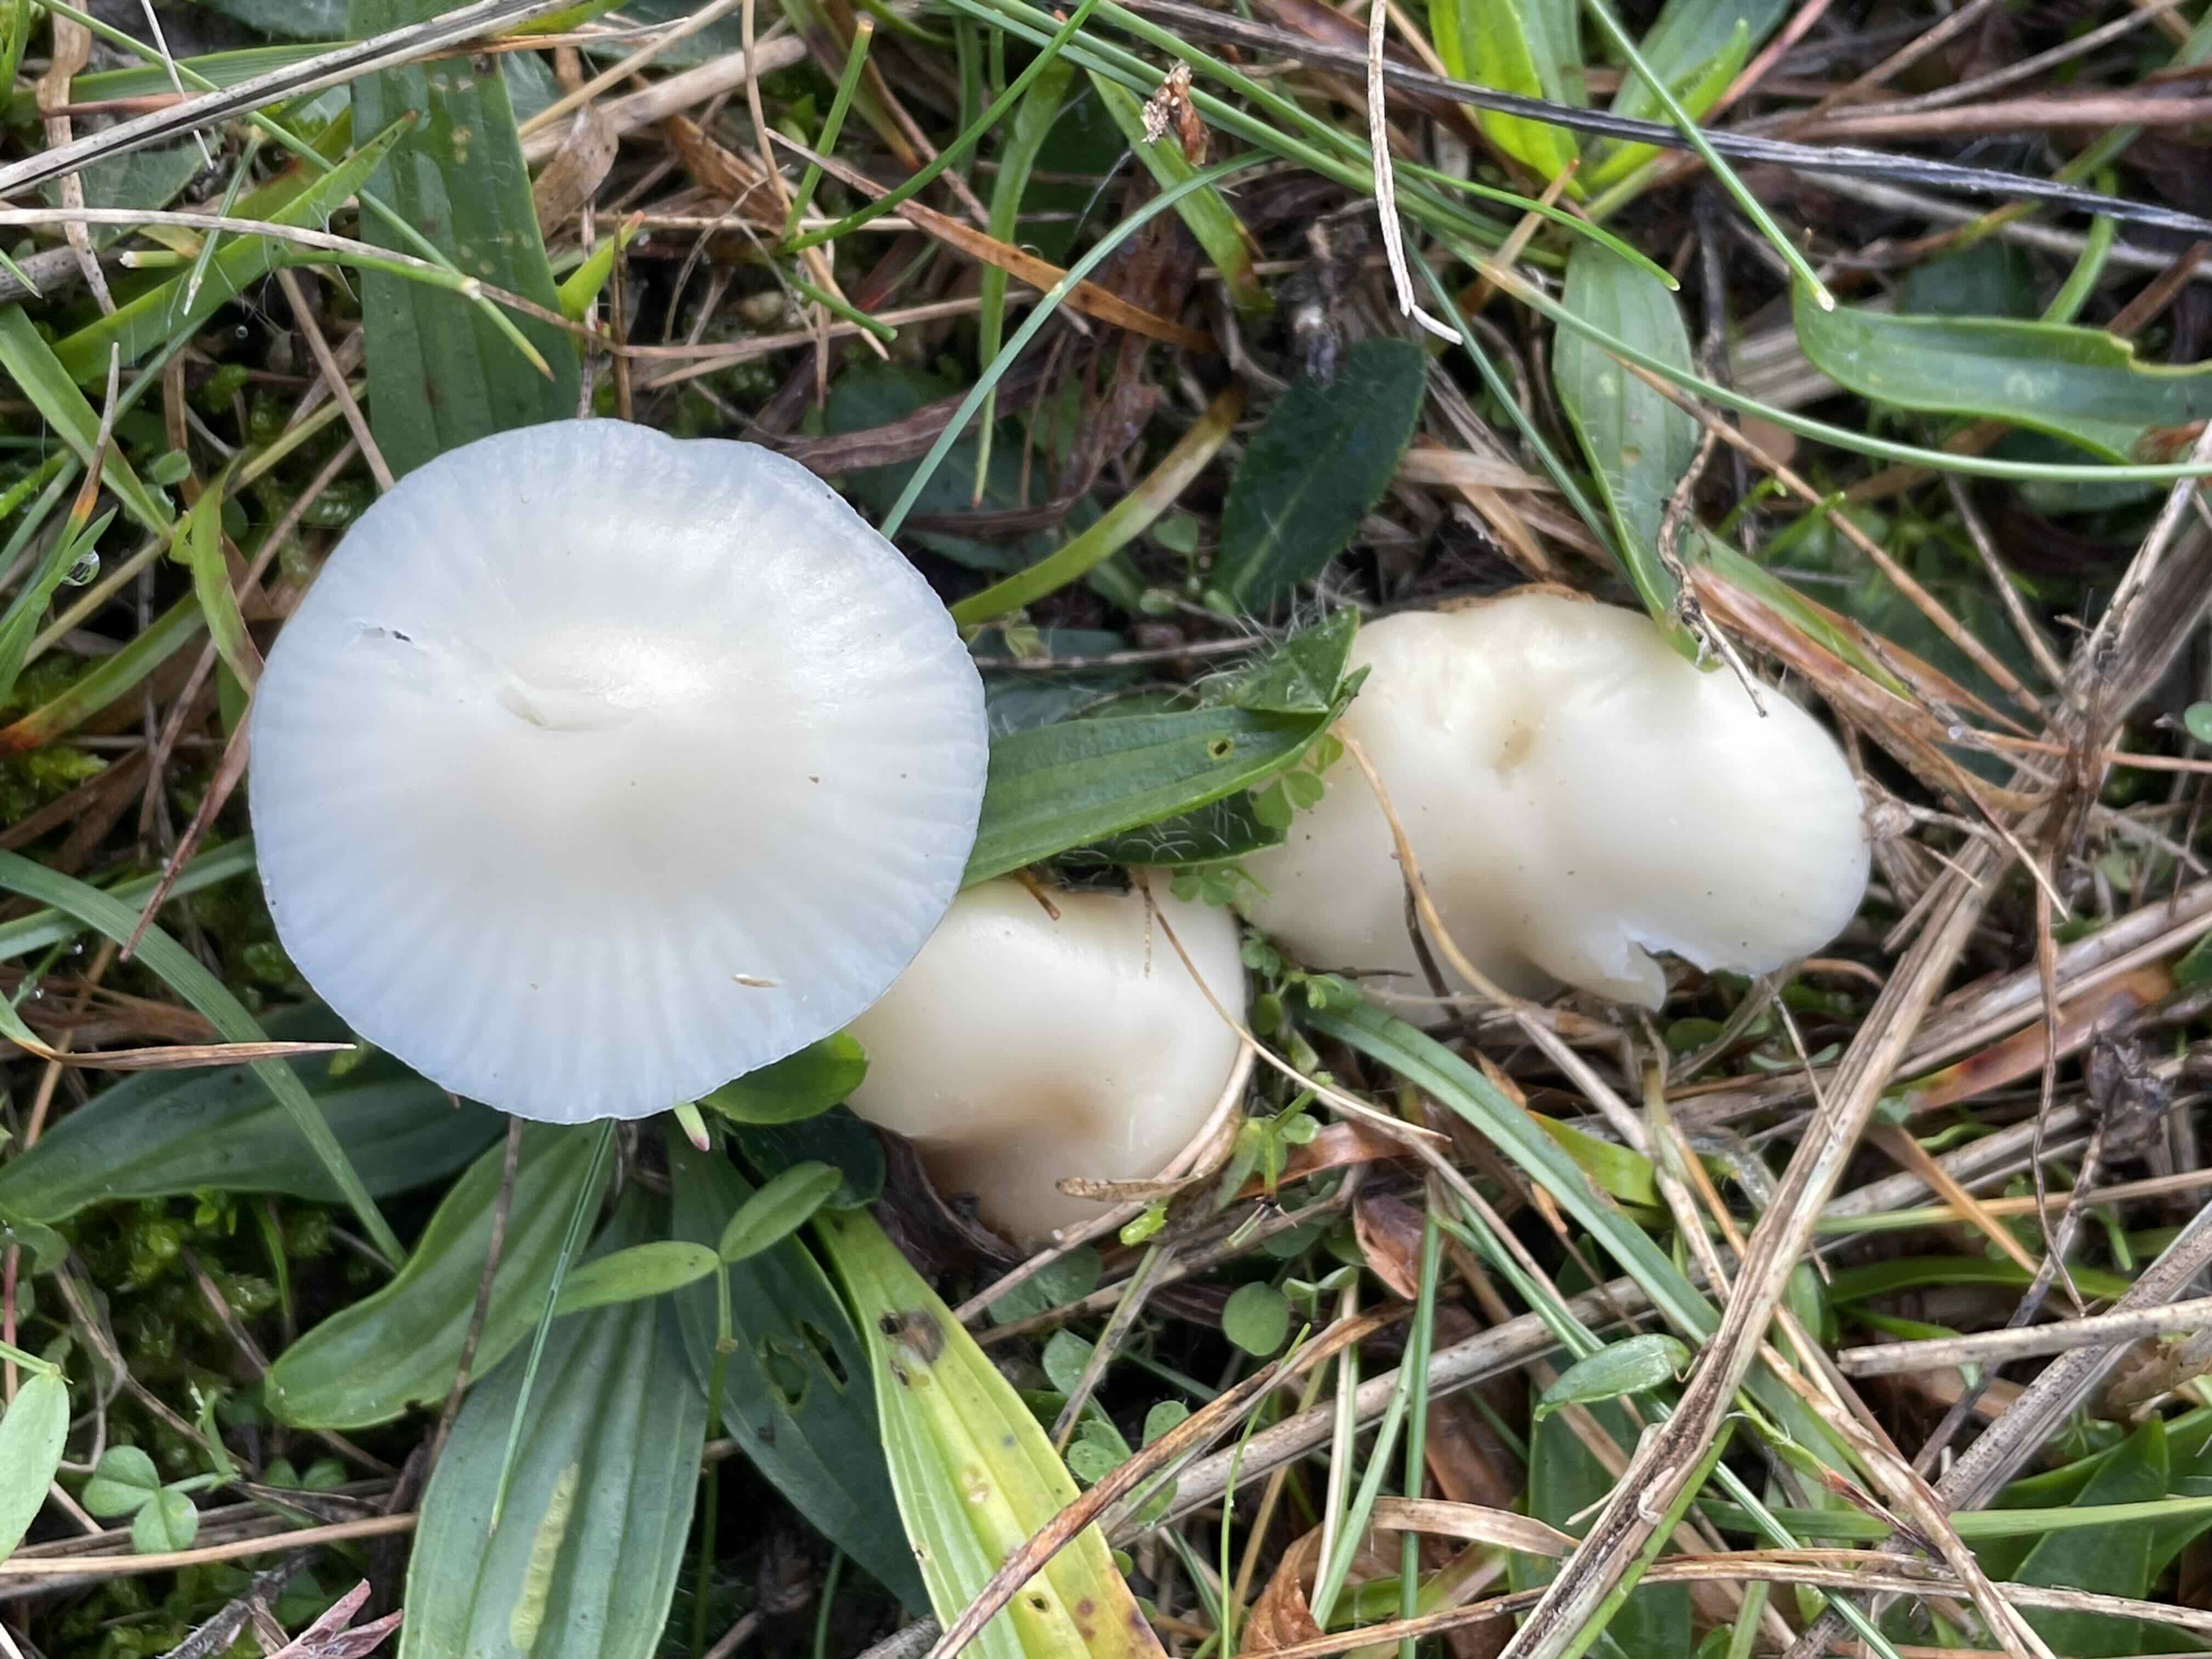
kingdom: Fungi
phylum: Basidiomycota
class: Agaricomycetes
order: Agaricales
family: Hygrophoraceae
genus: Cuphophyllus
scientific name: Cuphophyllus virgineus
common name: snehvid vokshat
